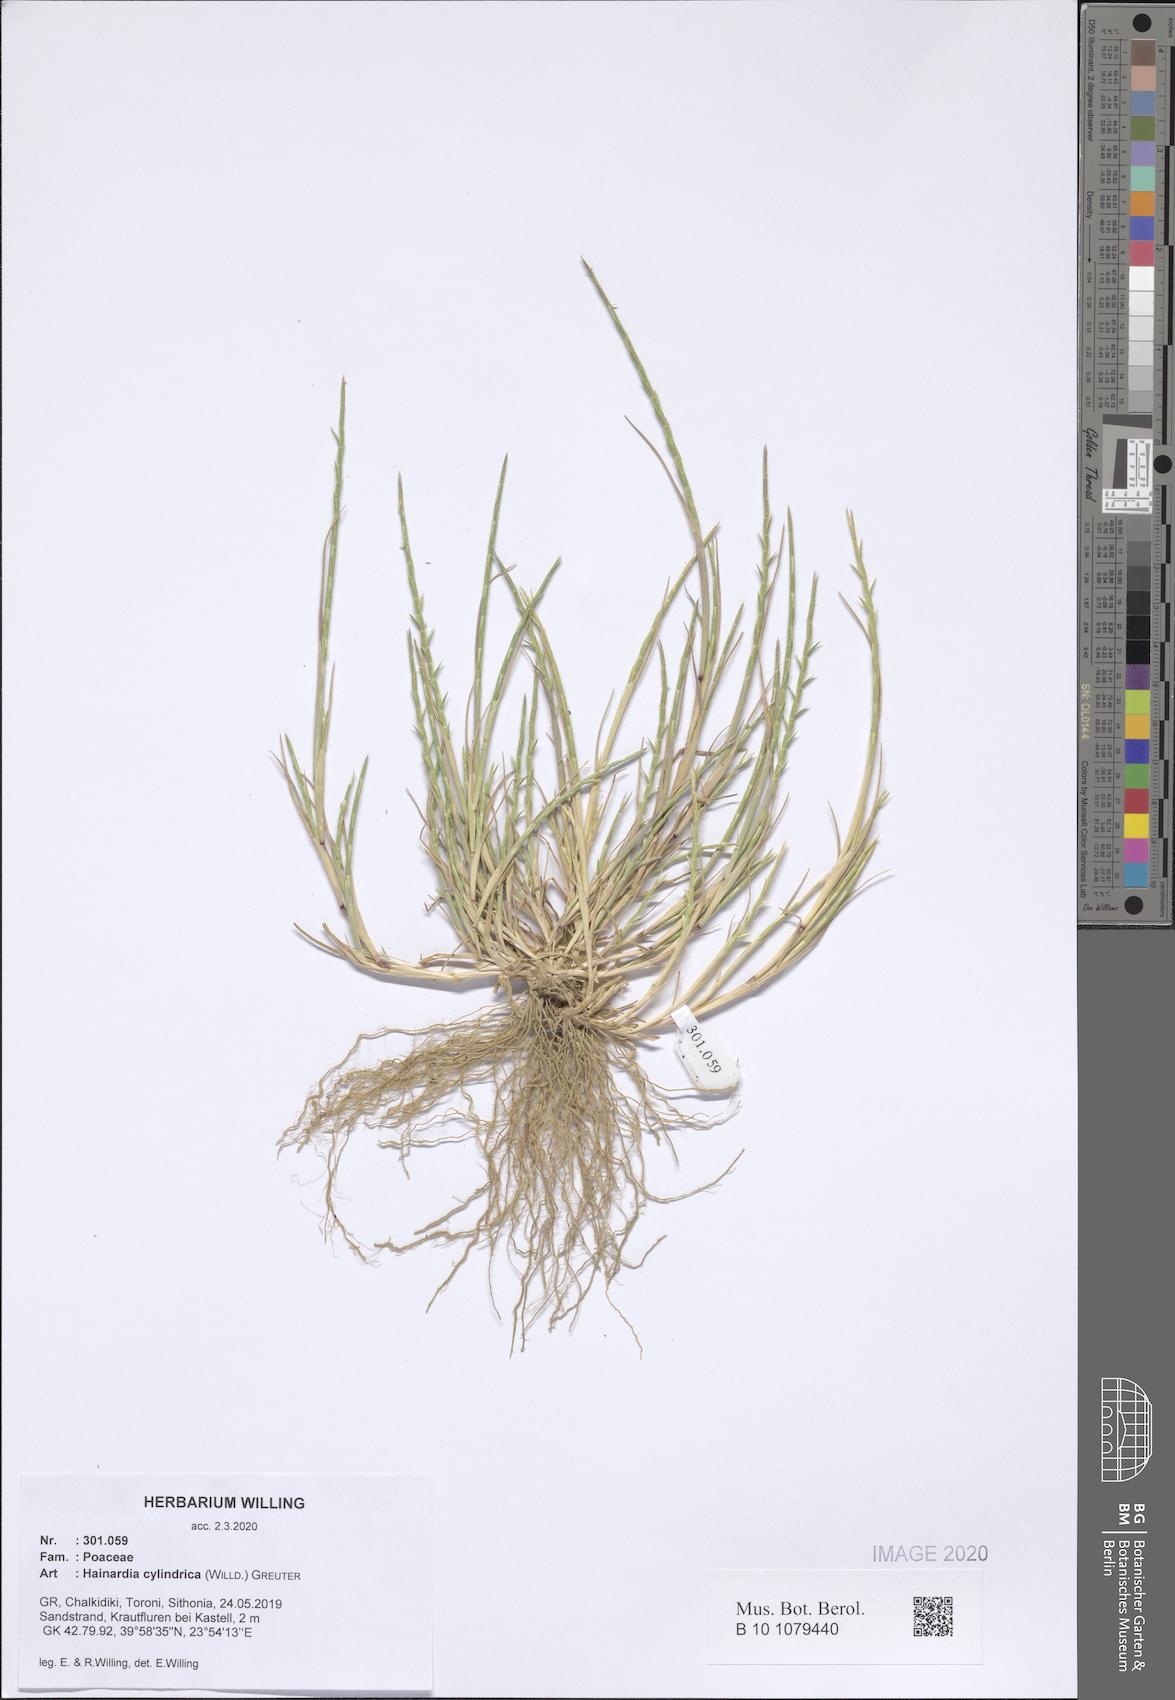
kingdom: Plantae
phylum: Tracheophyta
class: Liliopsida
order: Poales
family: Poaceae
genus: Parapholis
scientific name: Parapholis cylindrica
